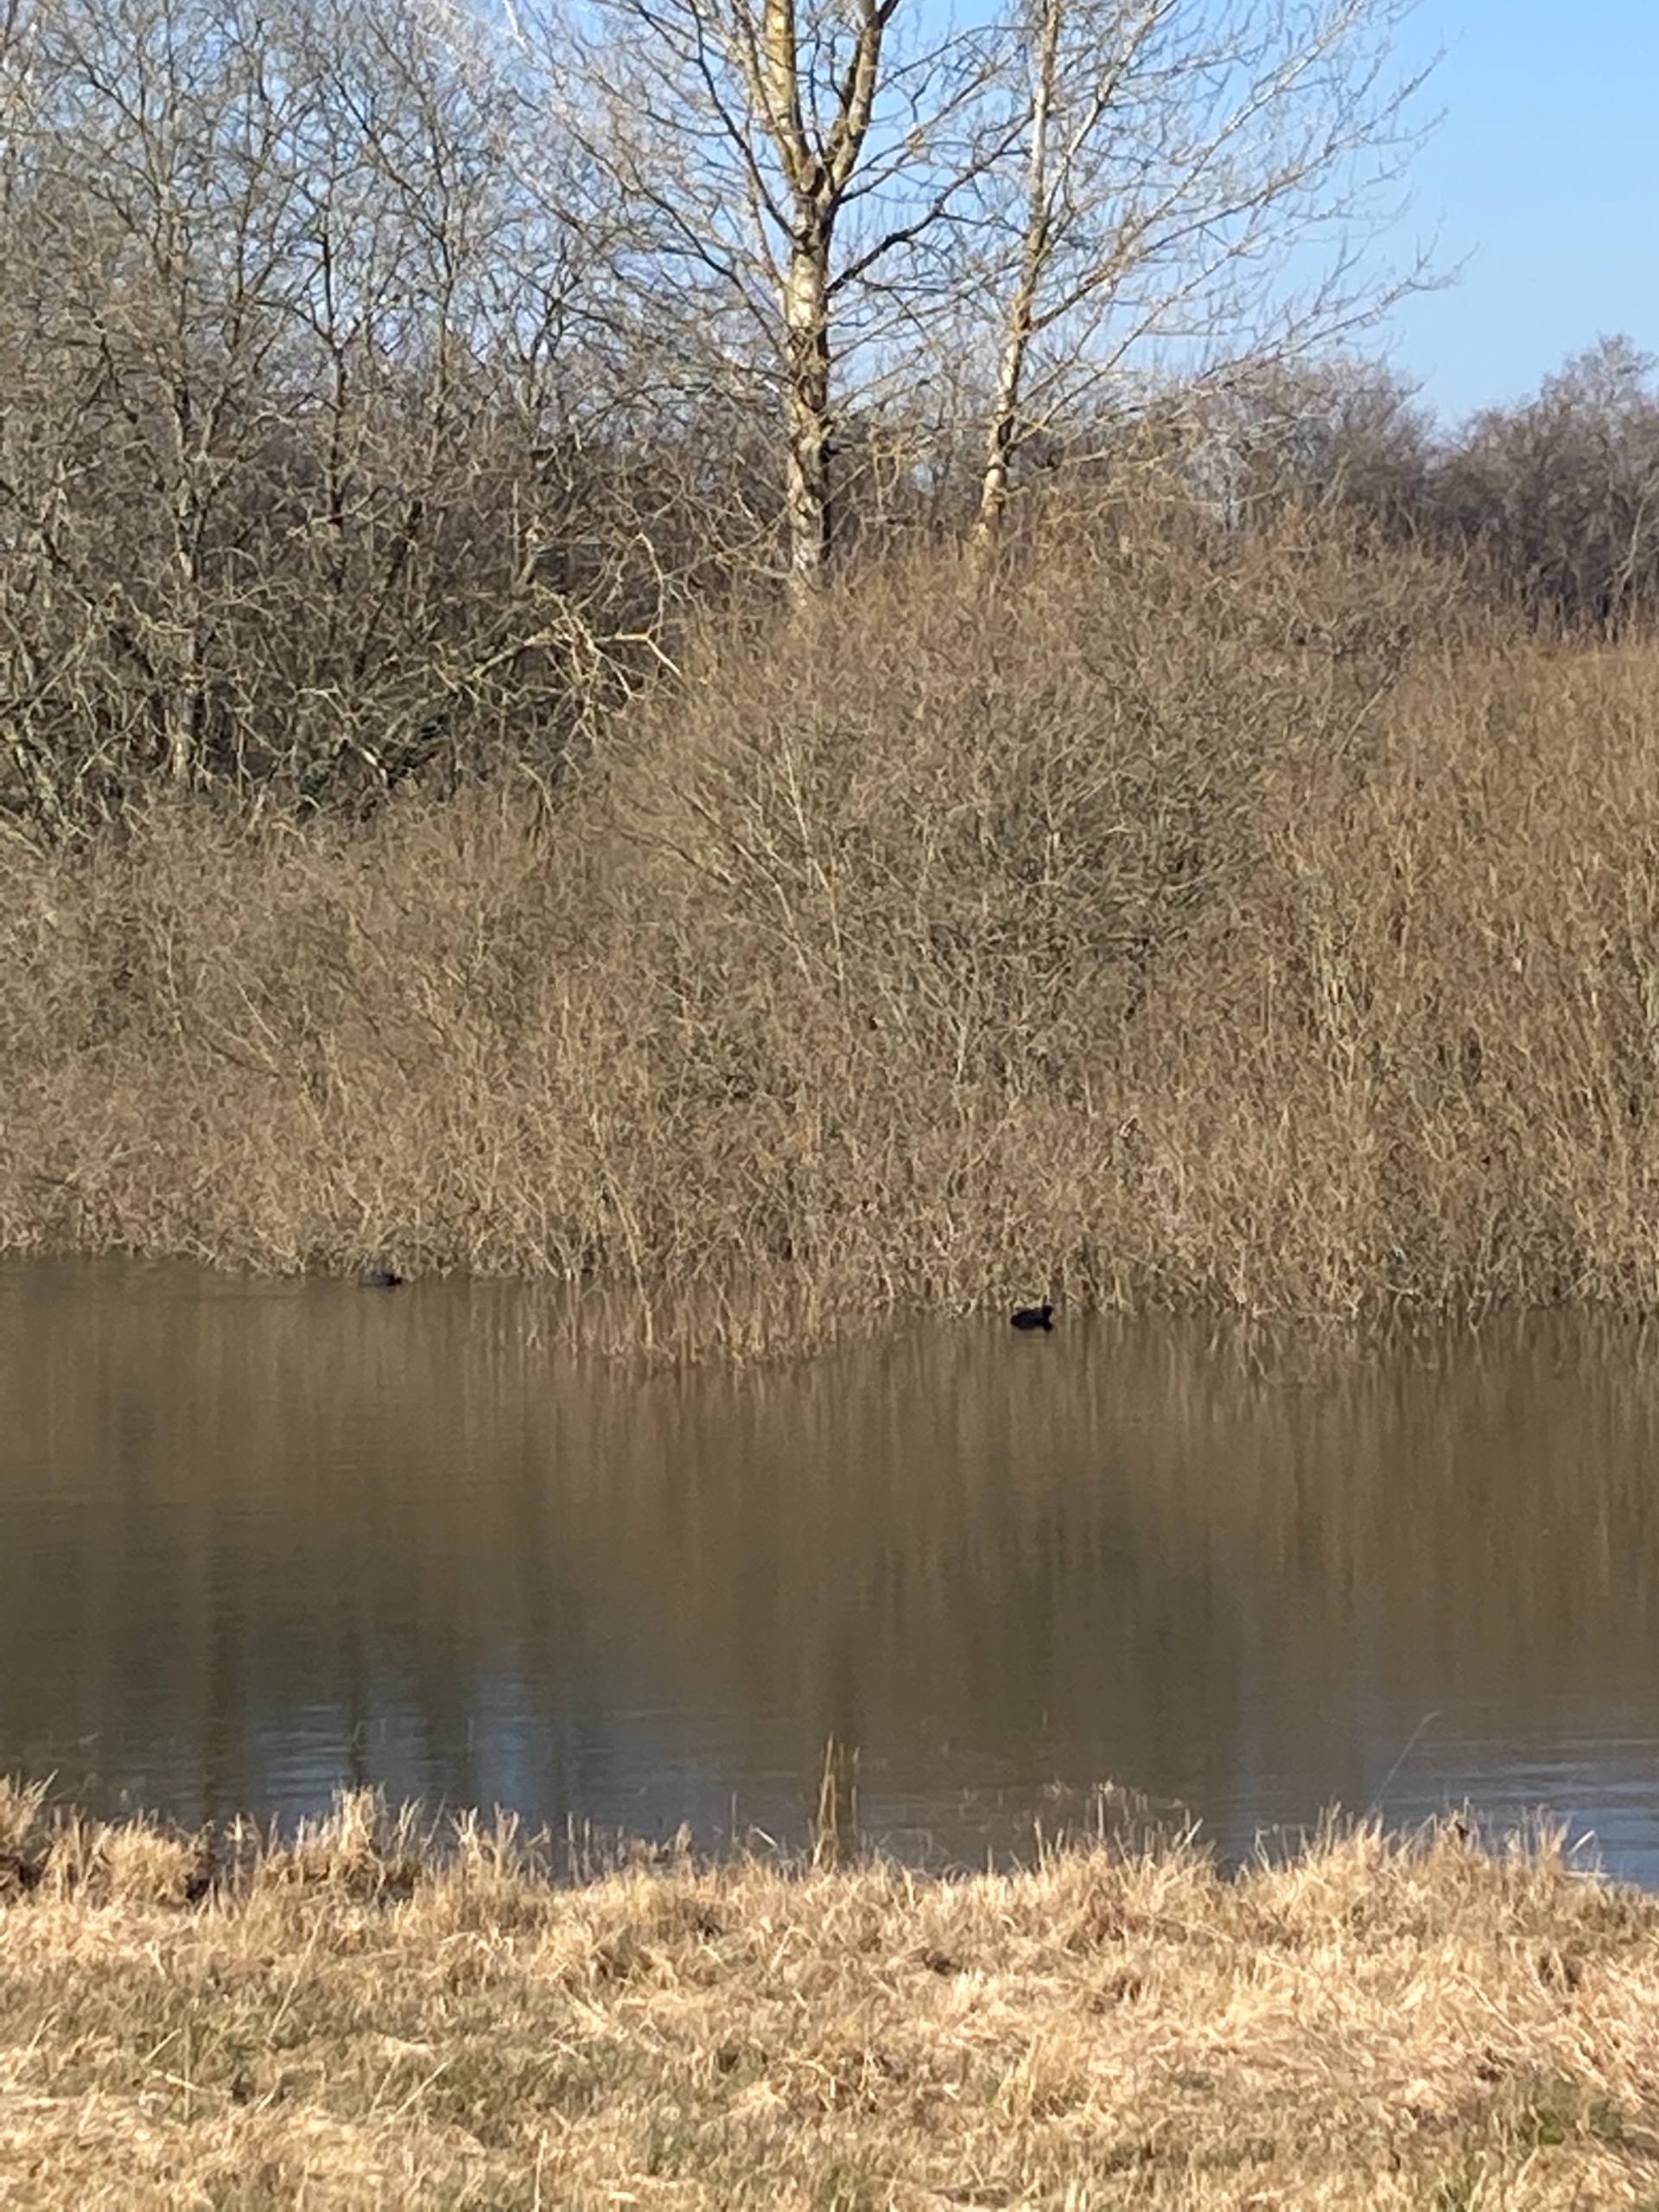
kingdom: Animalia
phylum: Chordata
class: Aves
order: Gruiformes
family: Rallidae
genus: Fulica
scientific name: Fulica atra
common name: Blishøne
